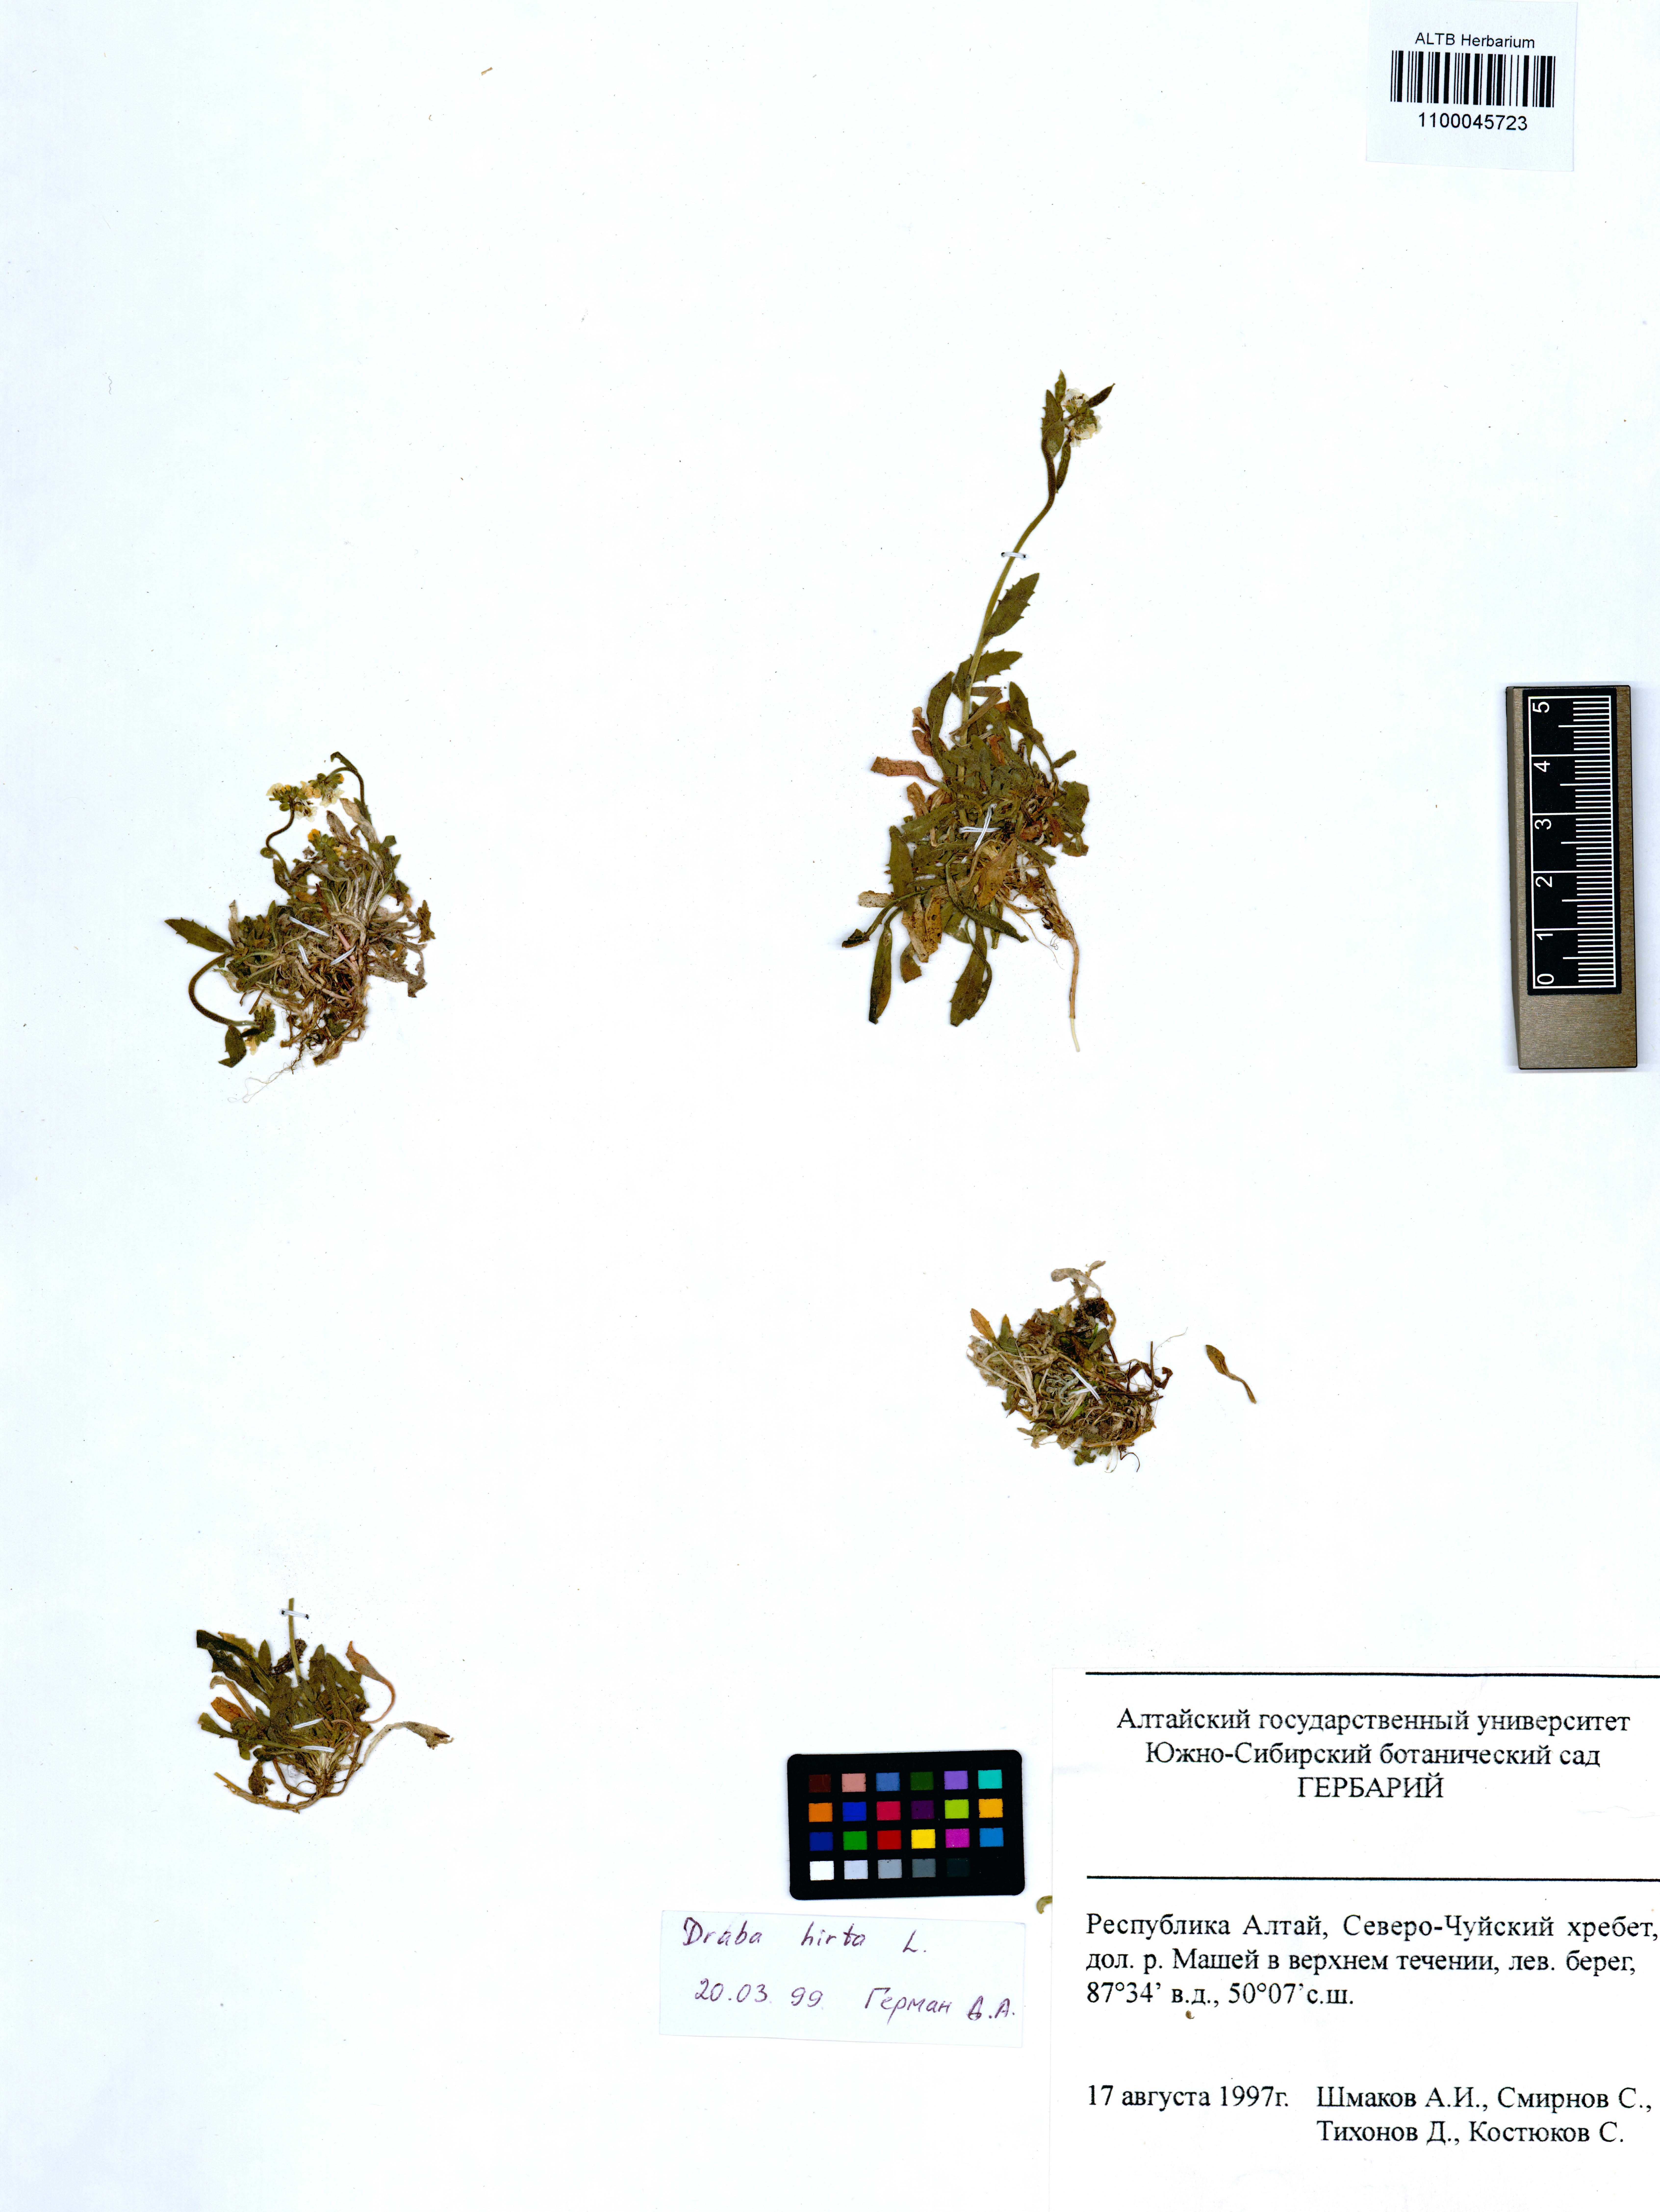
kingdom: Plantae
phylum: Tracheophyta
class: Magnoliopsida
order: Brassicales
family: Brassicaceae
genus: Draba
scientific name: Draba glabella
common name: Glaucous draba
